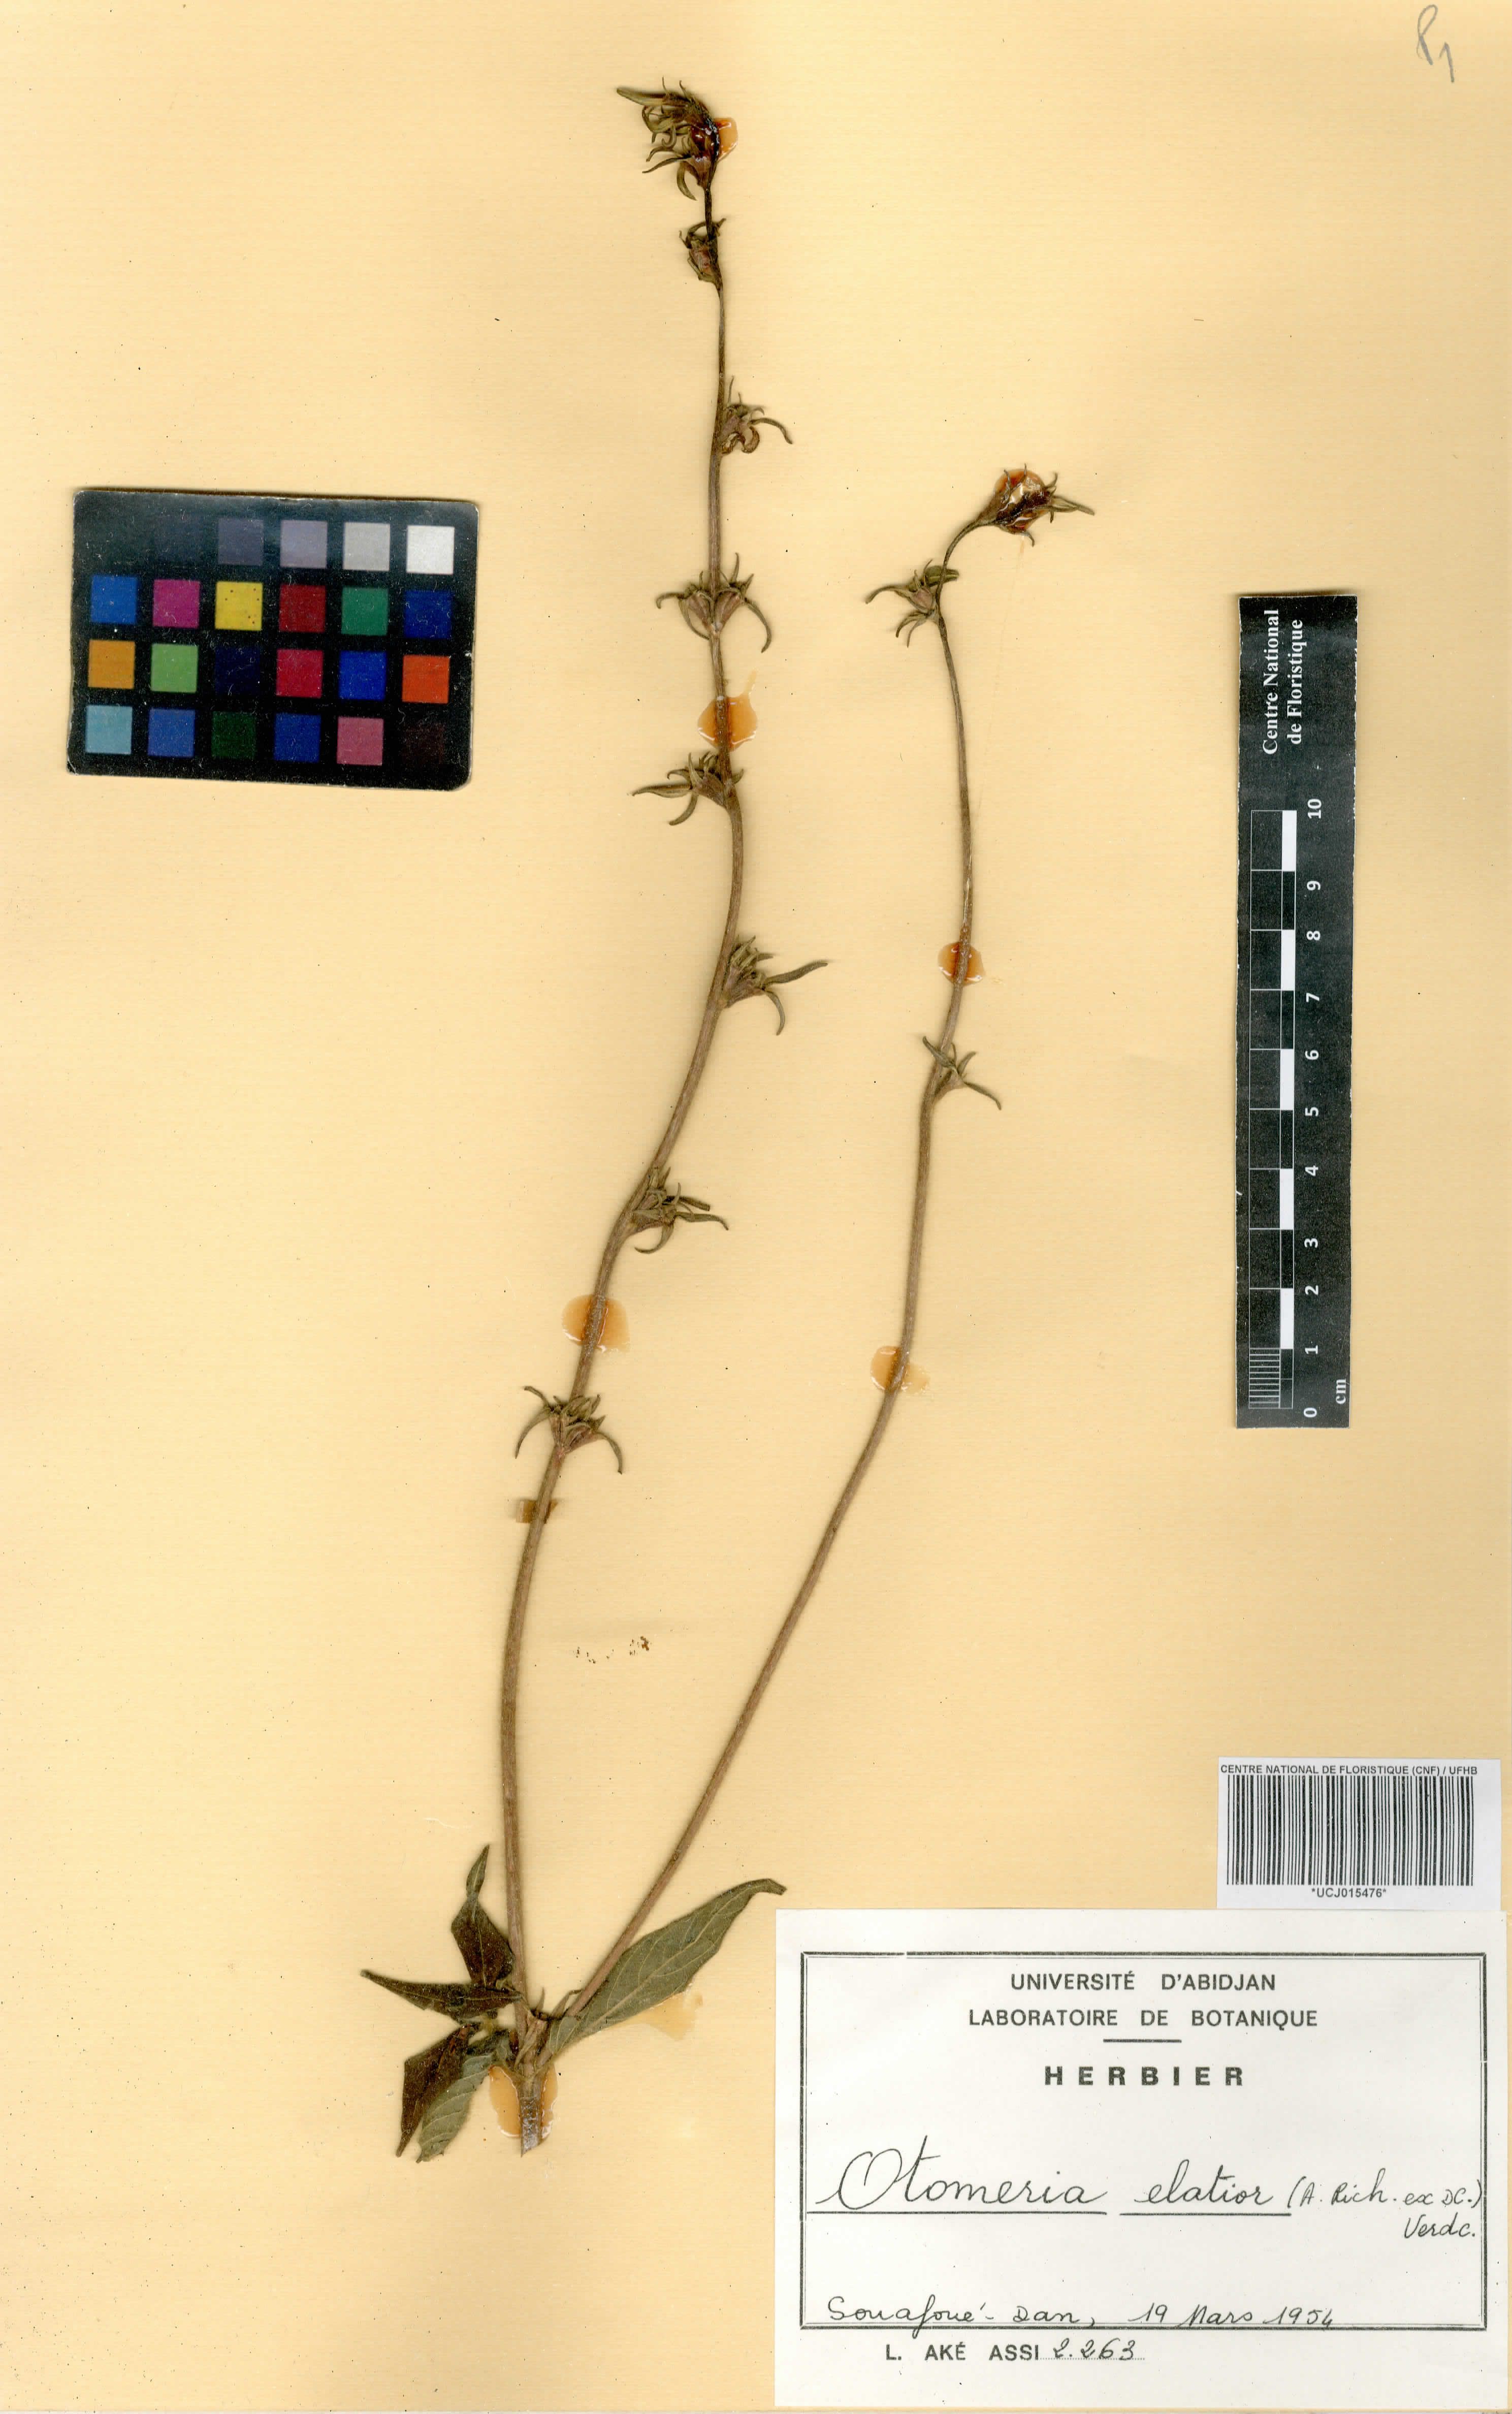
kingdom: Plantae
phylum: Tracheophyta
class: Magnoliopsida
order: Gentianales
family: Rubiaceae
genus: Otomeria
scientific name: Otomeria elatior
